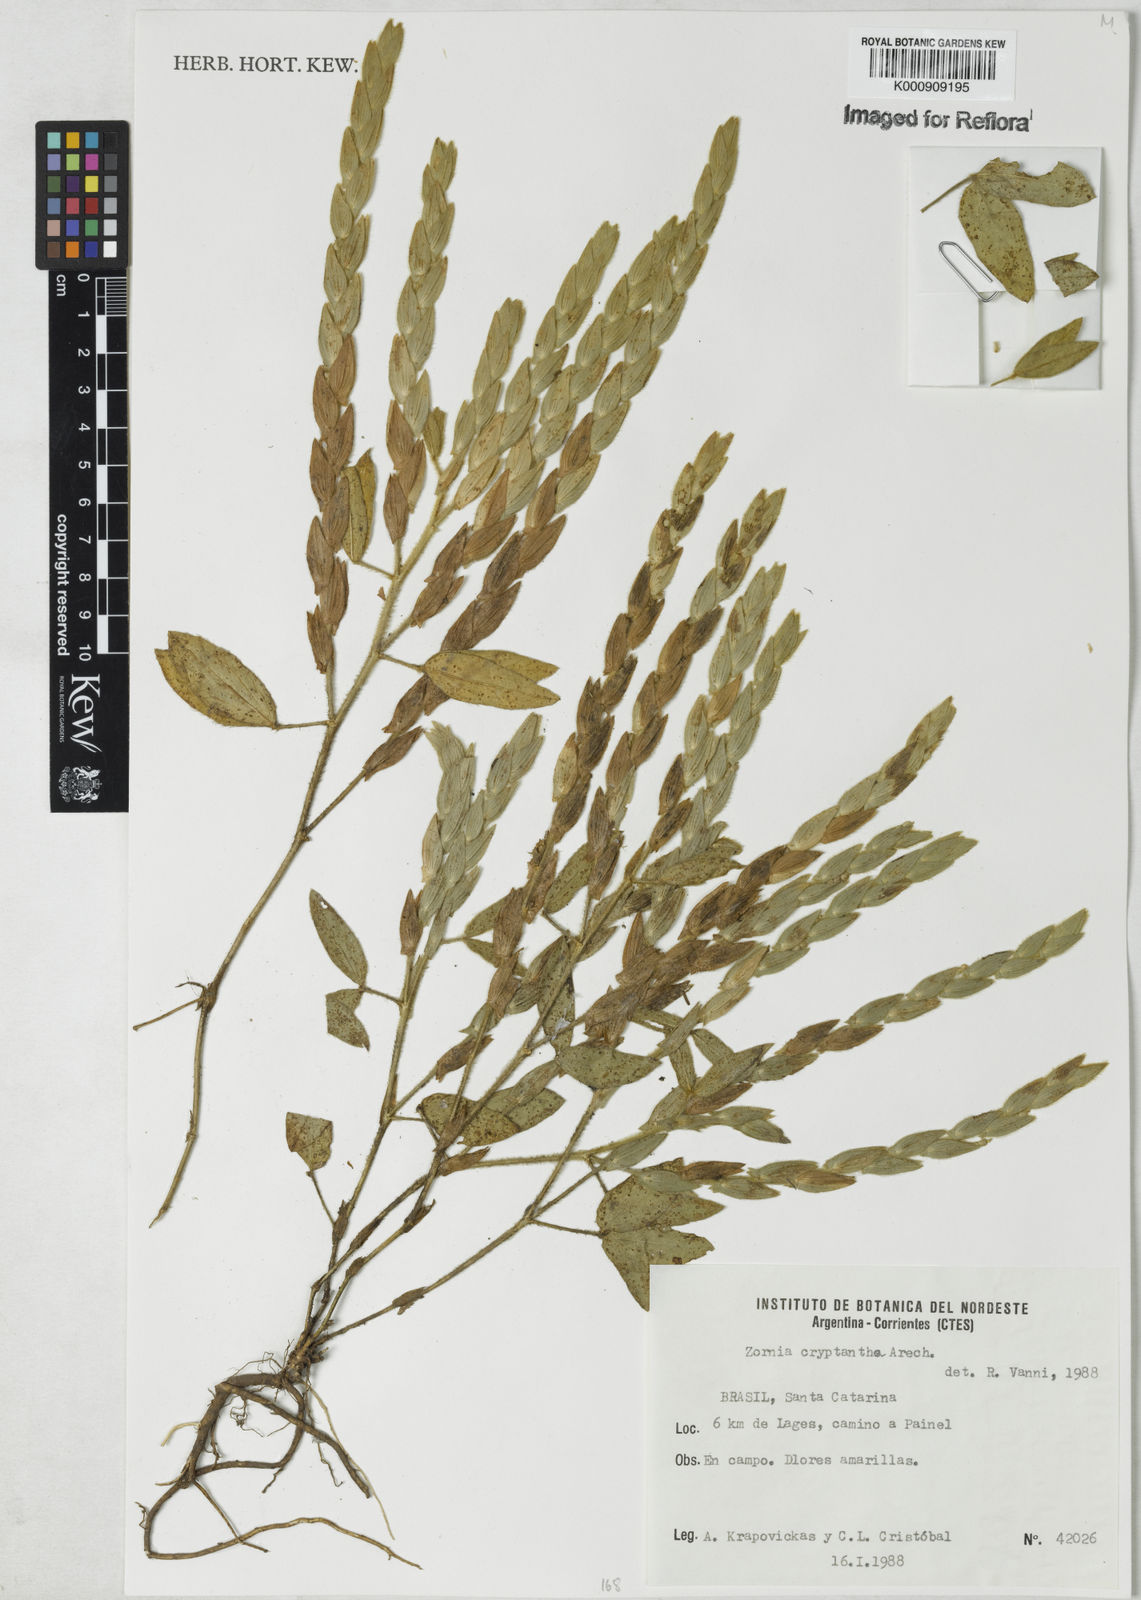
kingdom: Plantae
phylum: Tracheophyta
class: Magnoliopsida
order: Fabales
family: Fabaceae
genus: Zornia
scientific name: Zornia cryptantha
